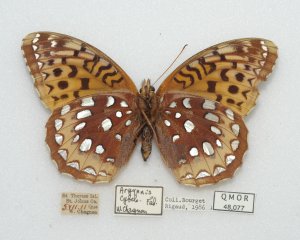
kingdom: Animalia
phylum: Arthropoda
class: Insecta
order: Lepidoptera
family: Nymphalidae
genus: Speyeria
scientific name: Speyeria cybele
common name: Great Spangled Fritillary
